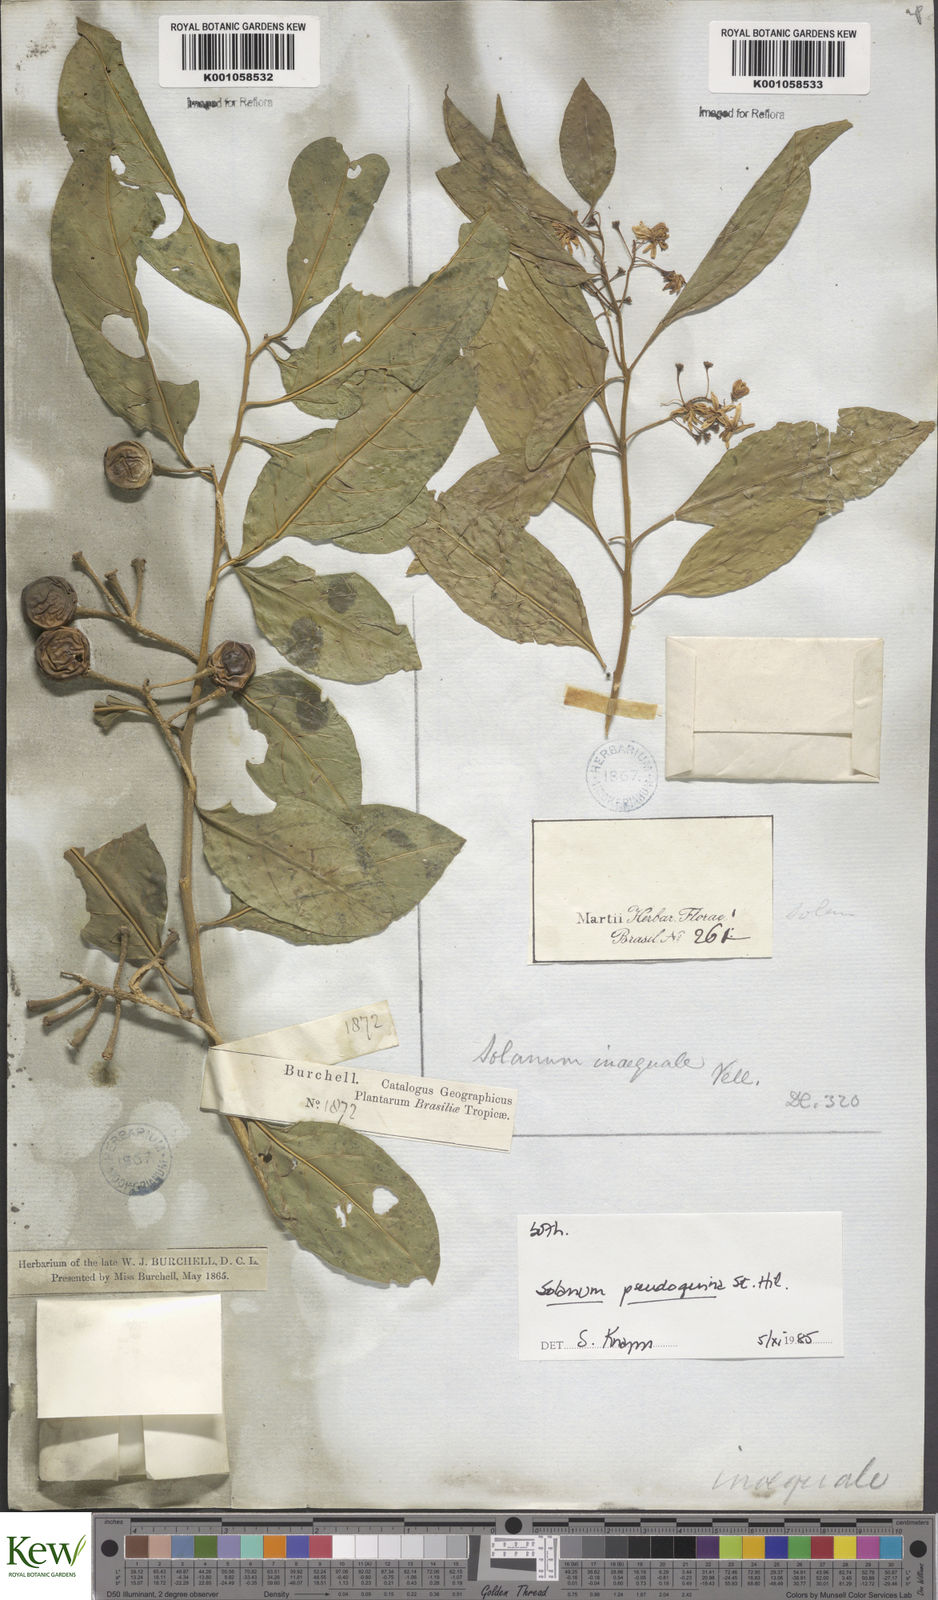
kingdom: Plantae
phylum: Tracheophyta
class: Magnoliopsida
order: Solanales
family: Solanaceae
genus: Solanum
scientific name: Solanum pseudoquina
